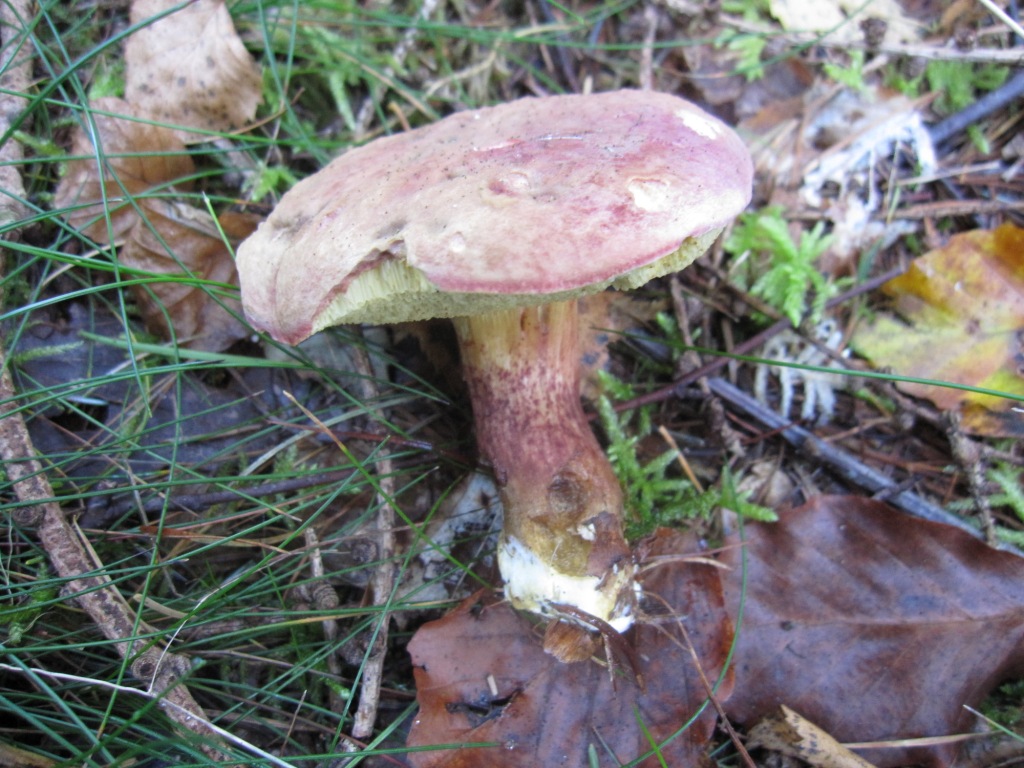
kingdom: Fungi
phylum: Basidiomycota
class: Agaricomycetes
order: Boletales
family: Boletaceae
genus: Hortiboletus
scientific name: Hortiboletus rubellus
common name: blodrød rørhat
